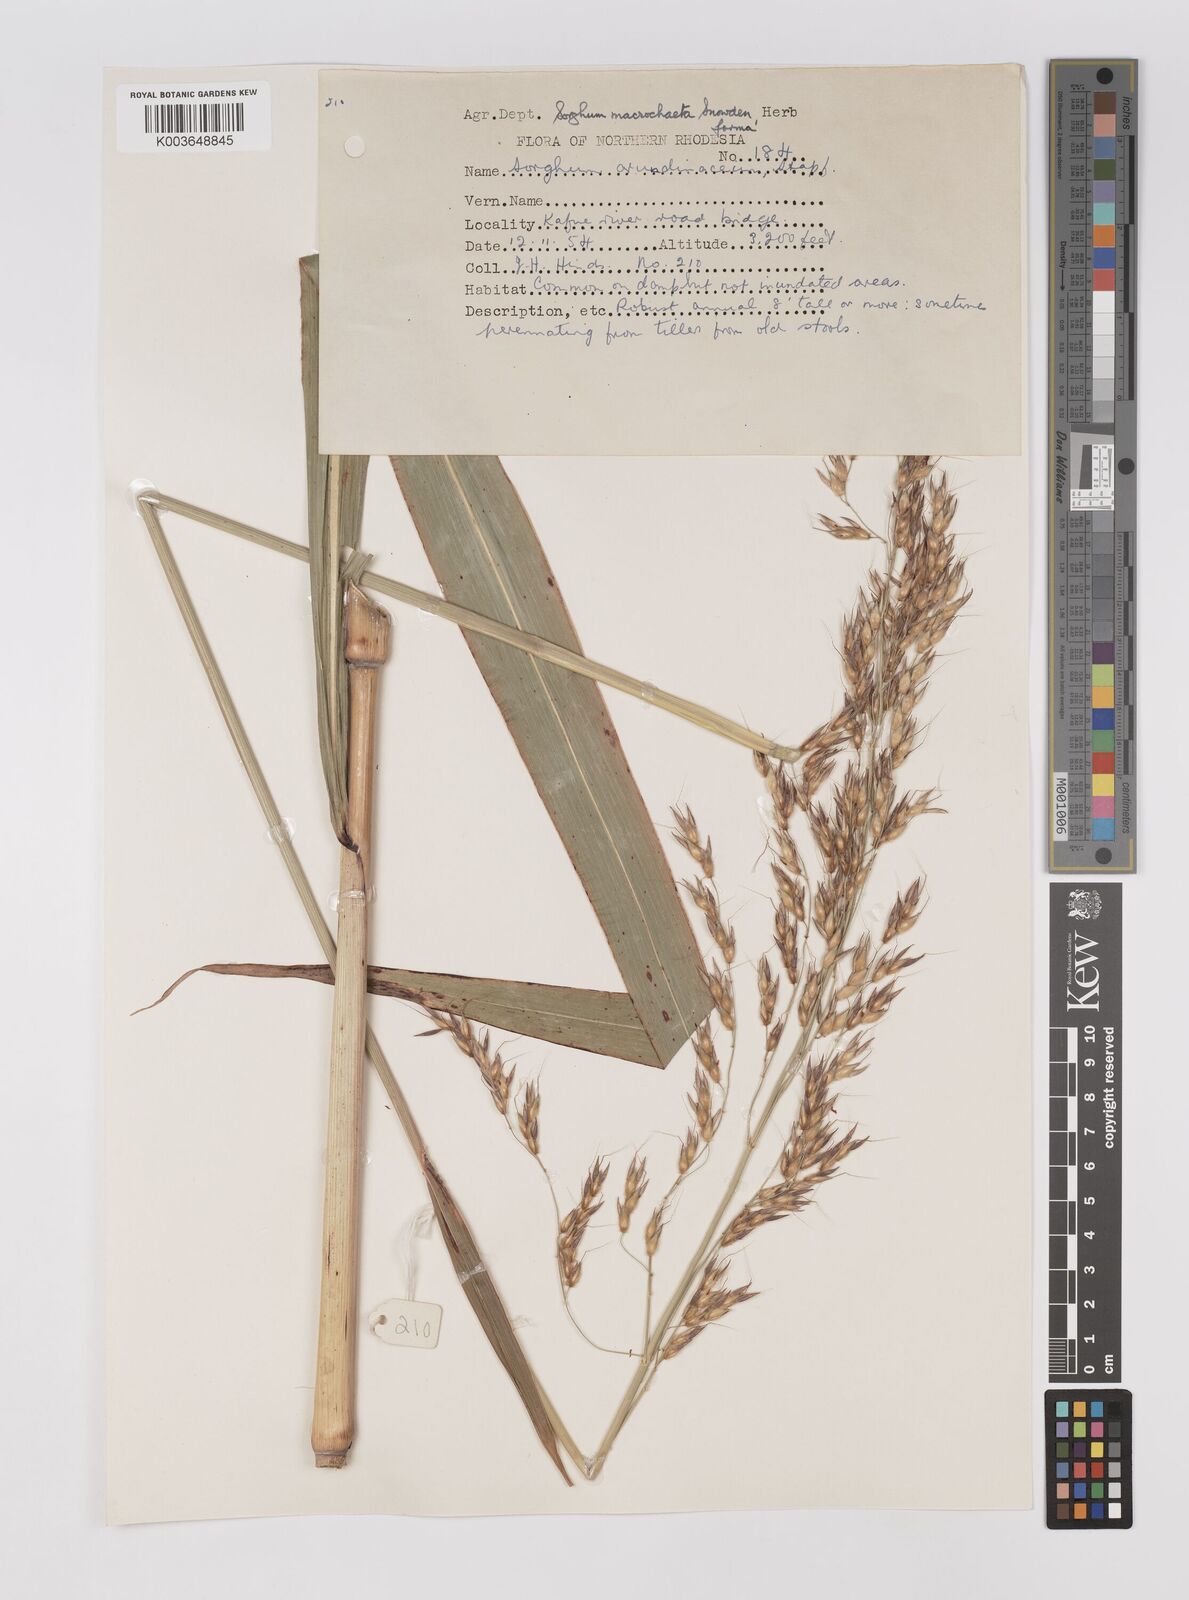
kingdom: Plantae
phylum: Tracheophyta
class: Liliopsida
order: Poales
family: Poaceae
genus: Sorghum
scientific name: Sorghum arundinaceum
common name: Sorghum
